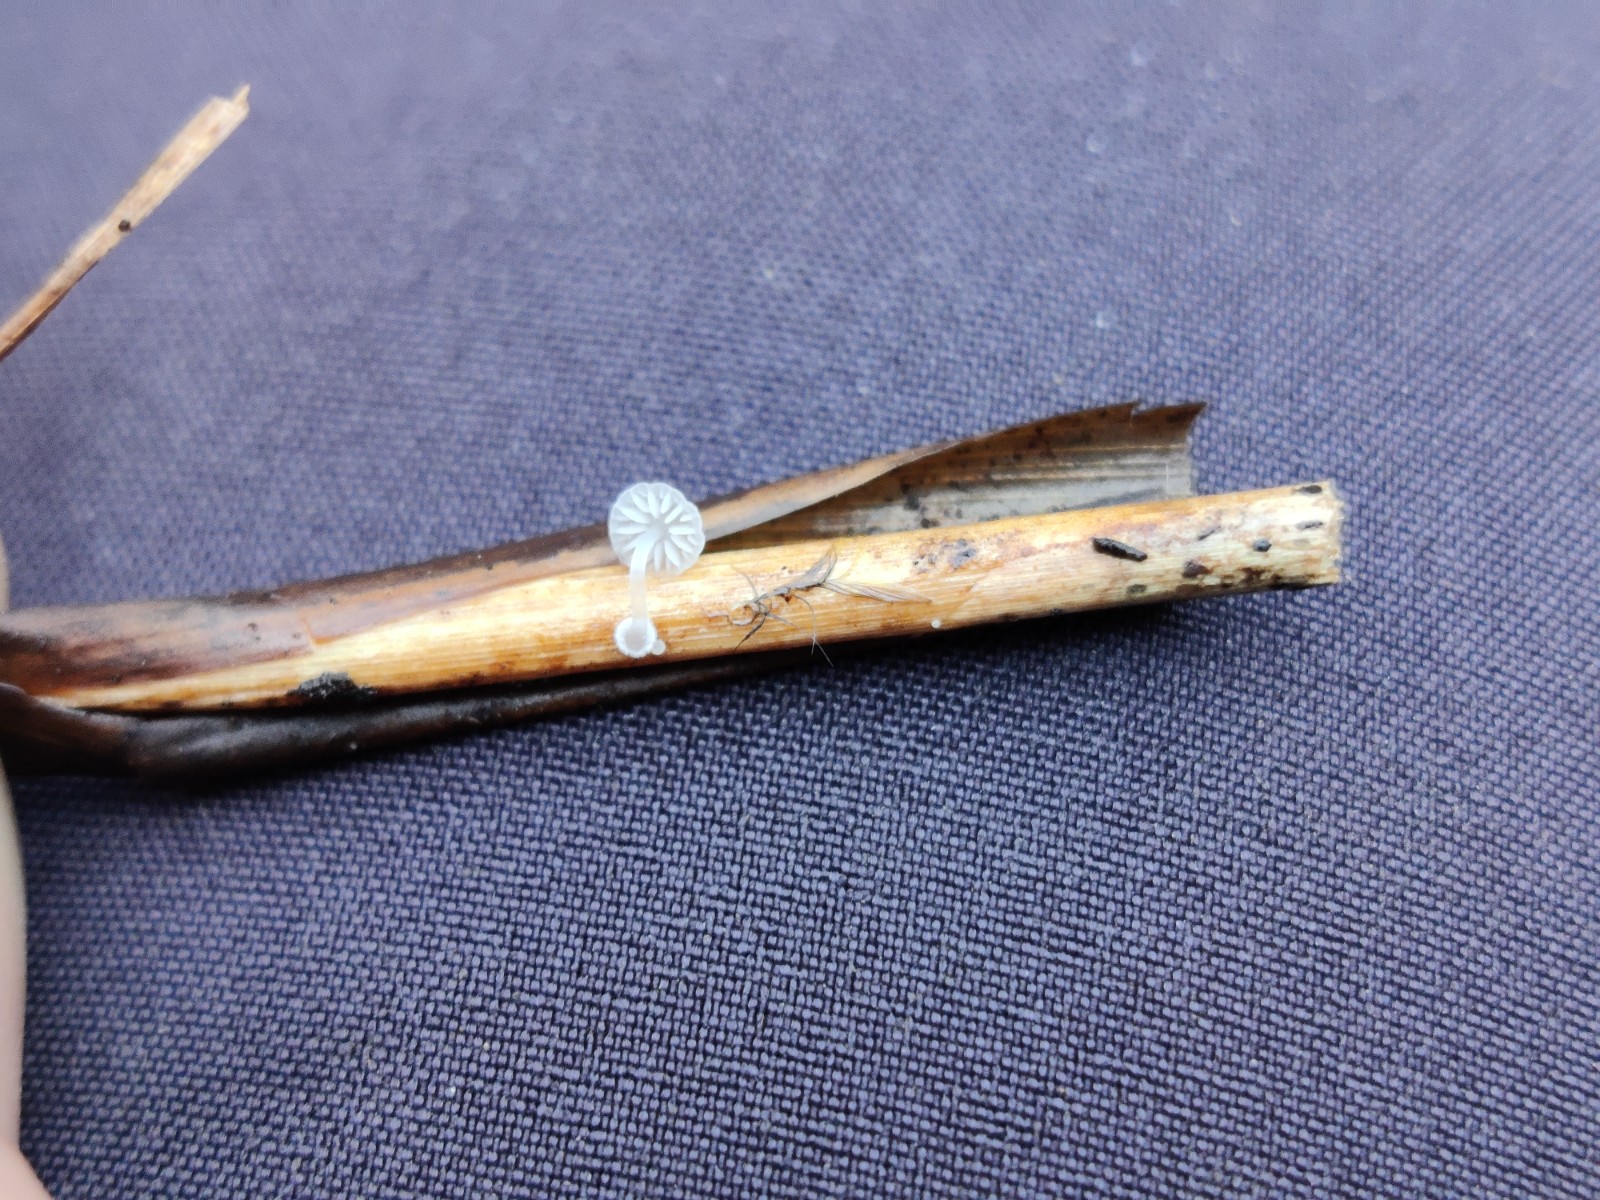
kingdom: Fungi
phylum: Basidiomycota
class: Agaricomycetes
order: Agaricales
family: Mycenaceae
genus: Mycena
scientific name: Mycena bulbosa
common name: siv-huesvamp
